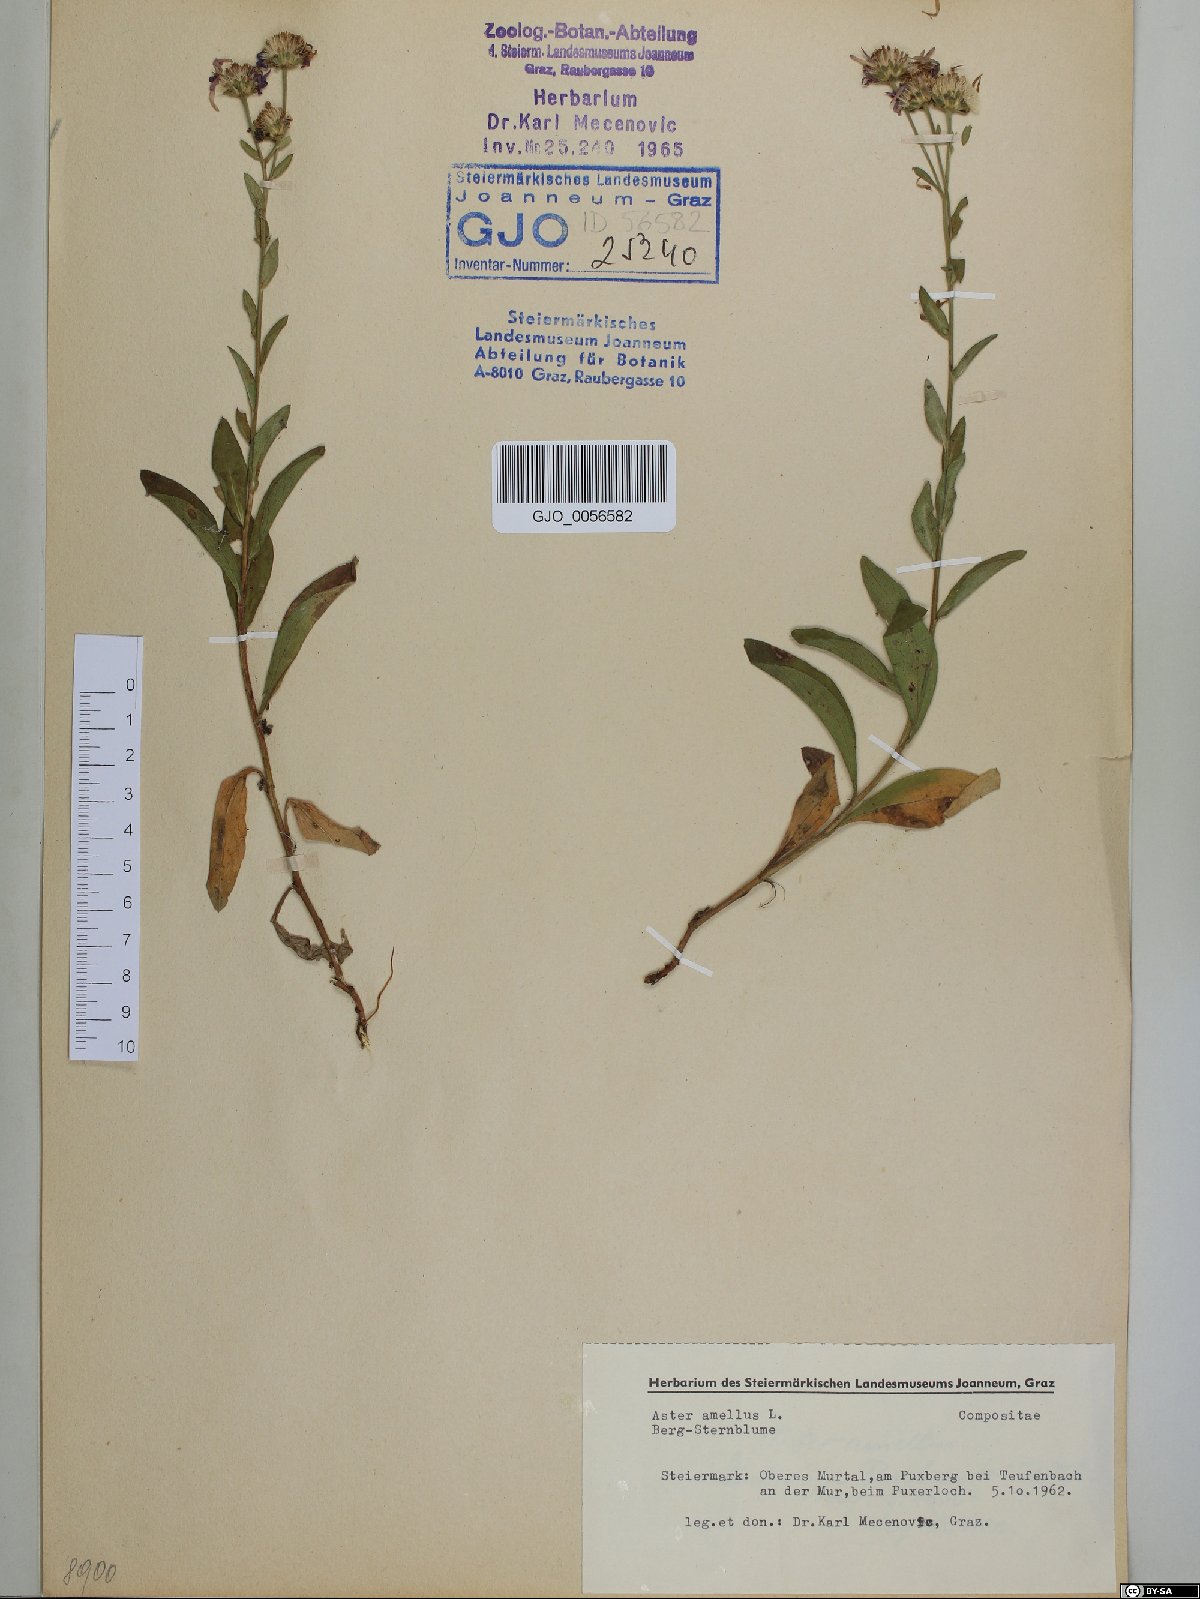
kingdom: Plantae
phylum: Tracheophyta
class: Magnoliopsida
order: Asterales
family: Asteraceae
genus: Aster
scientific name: Aster amellus
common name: European michaelmas daisy
